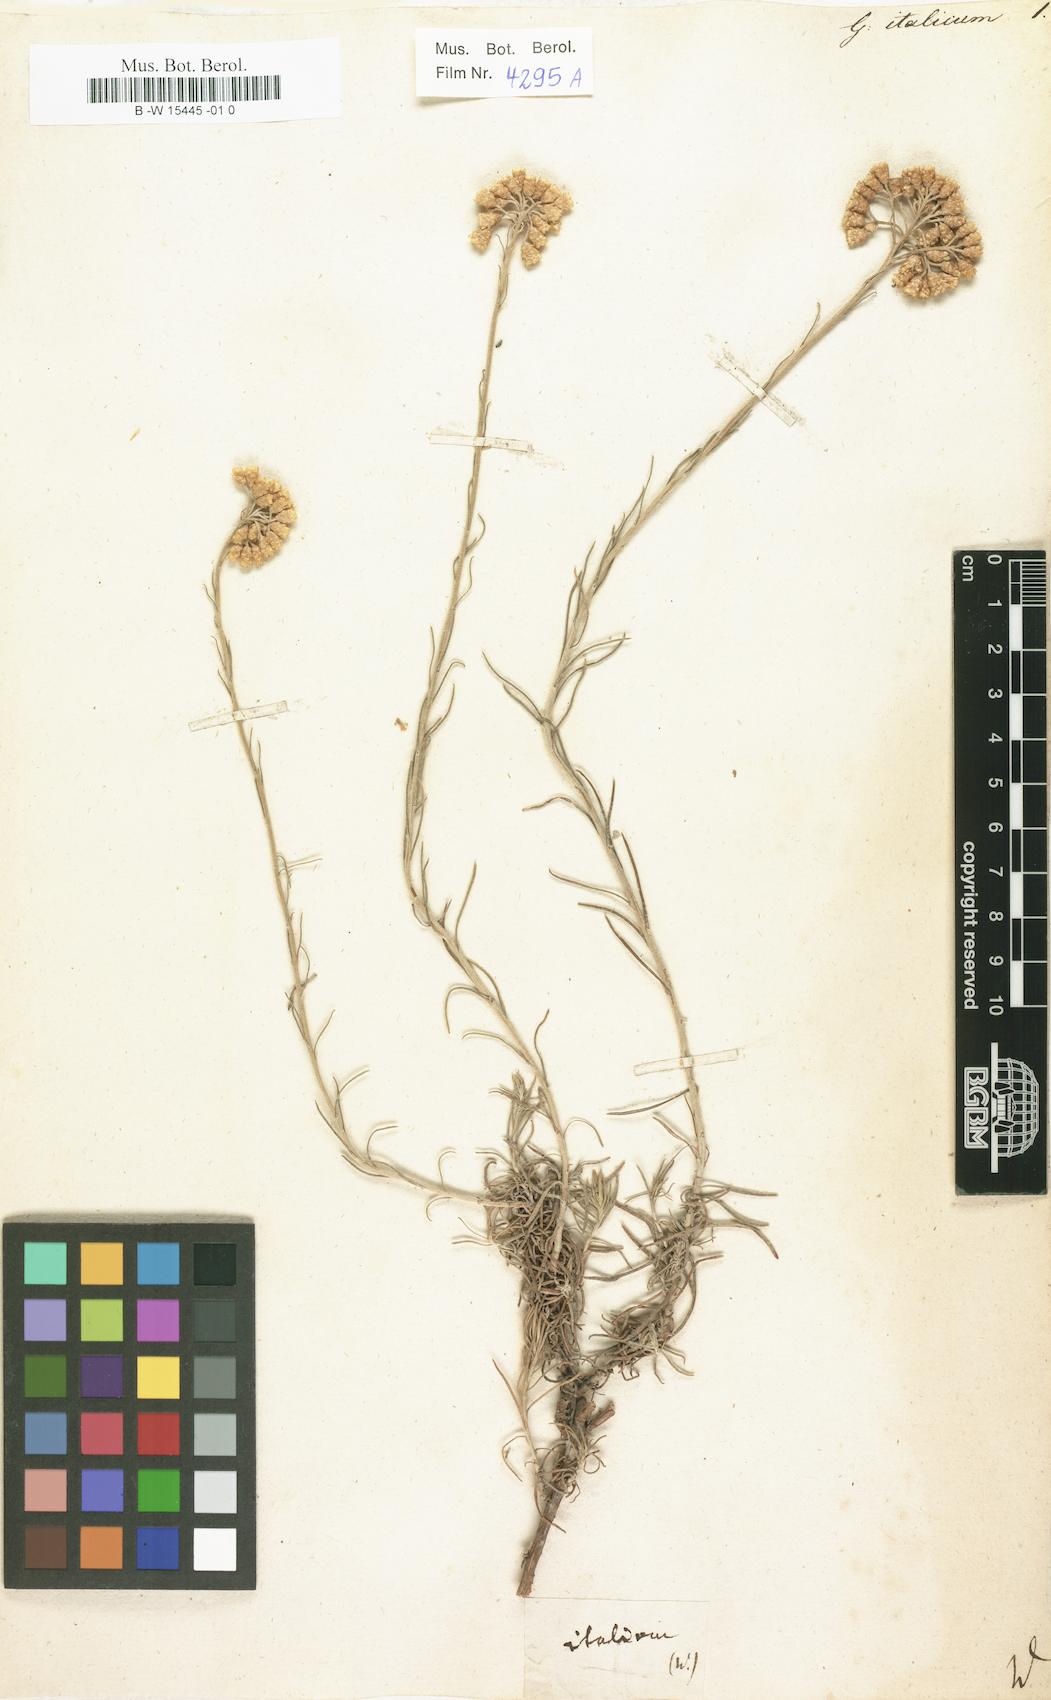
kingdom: Plantae
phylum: Tracheophyta
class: Magnoliopsida
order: Asterales
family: Asteraceae
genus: Helichrysum
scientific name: Helichrysum italicum
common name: Curryplant
